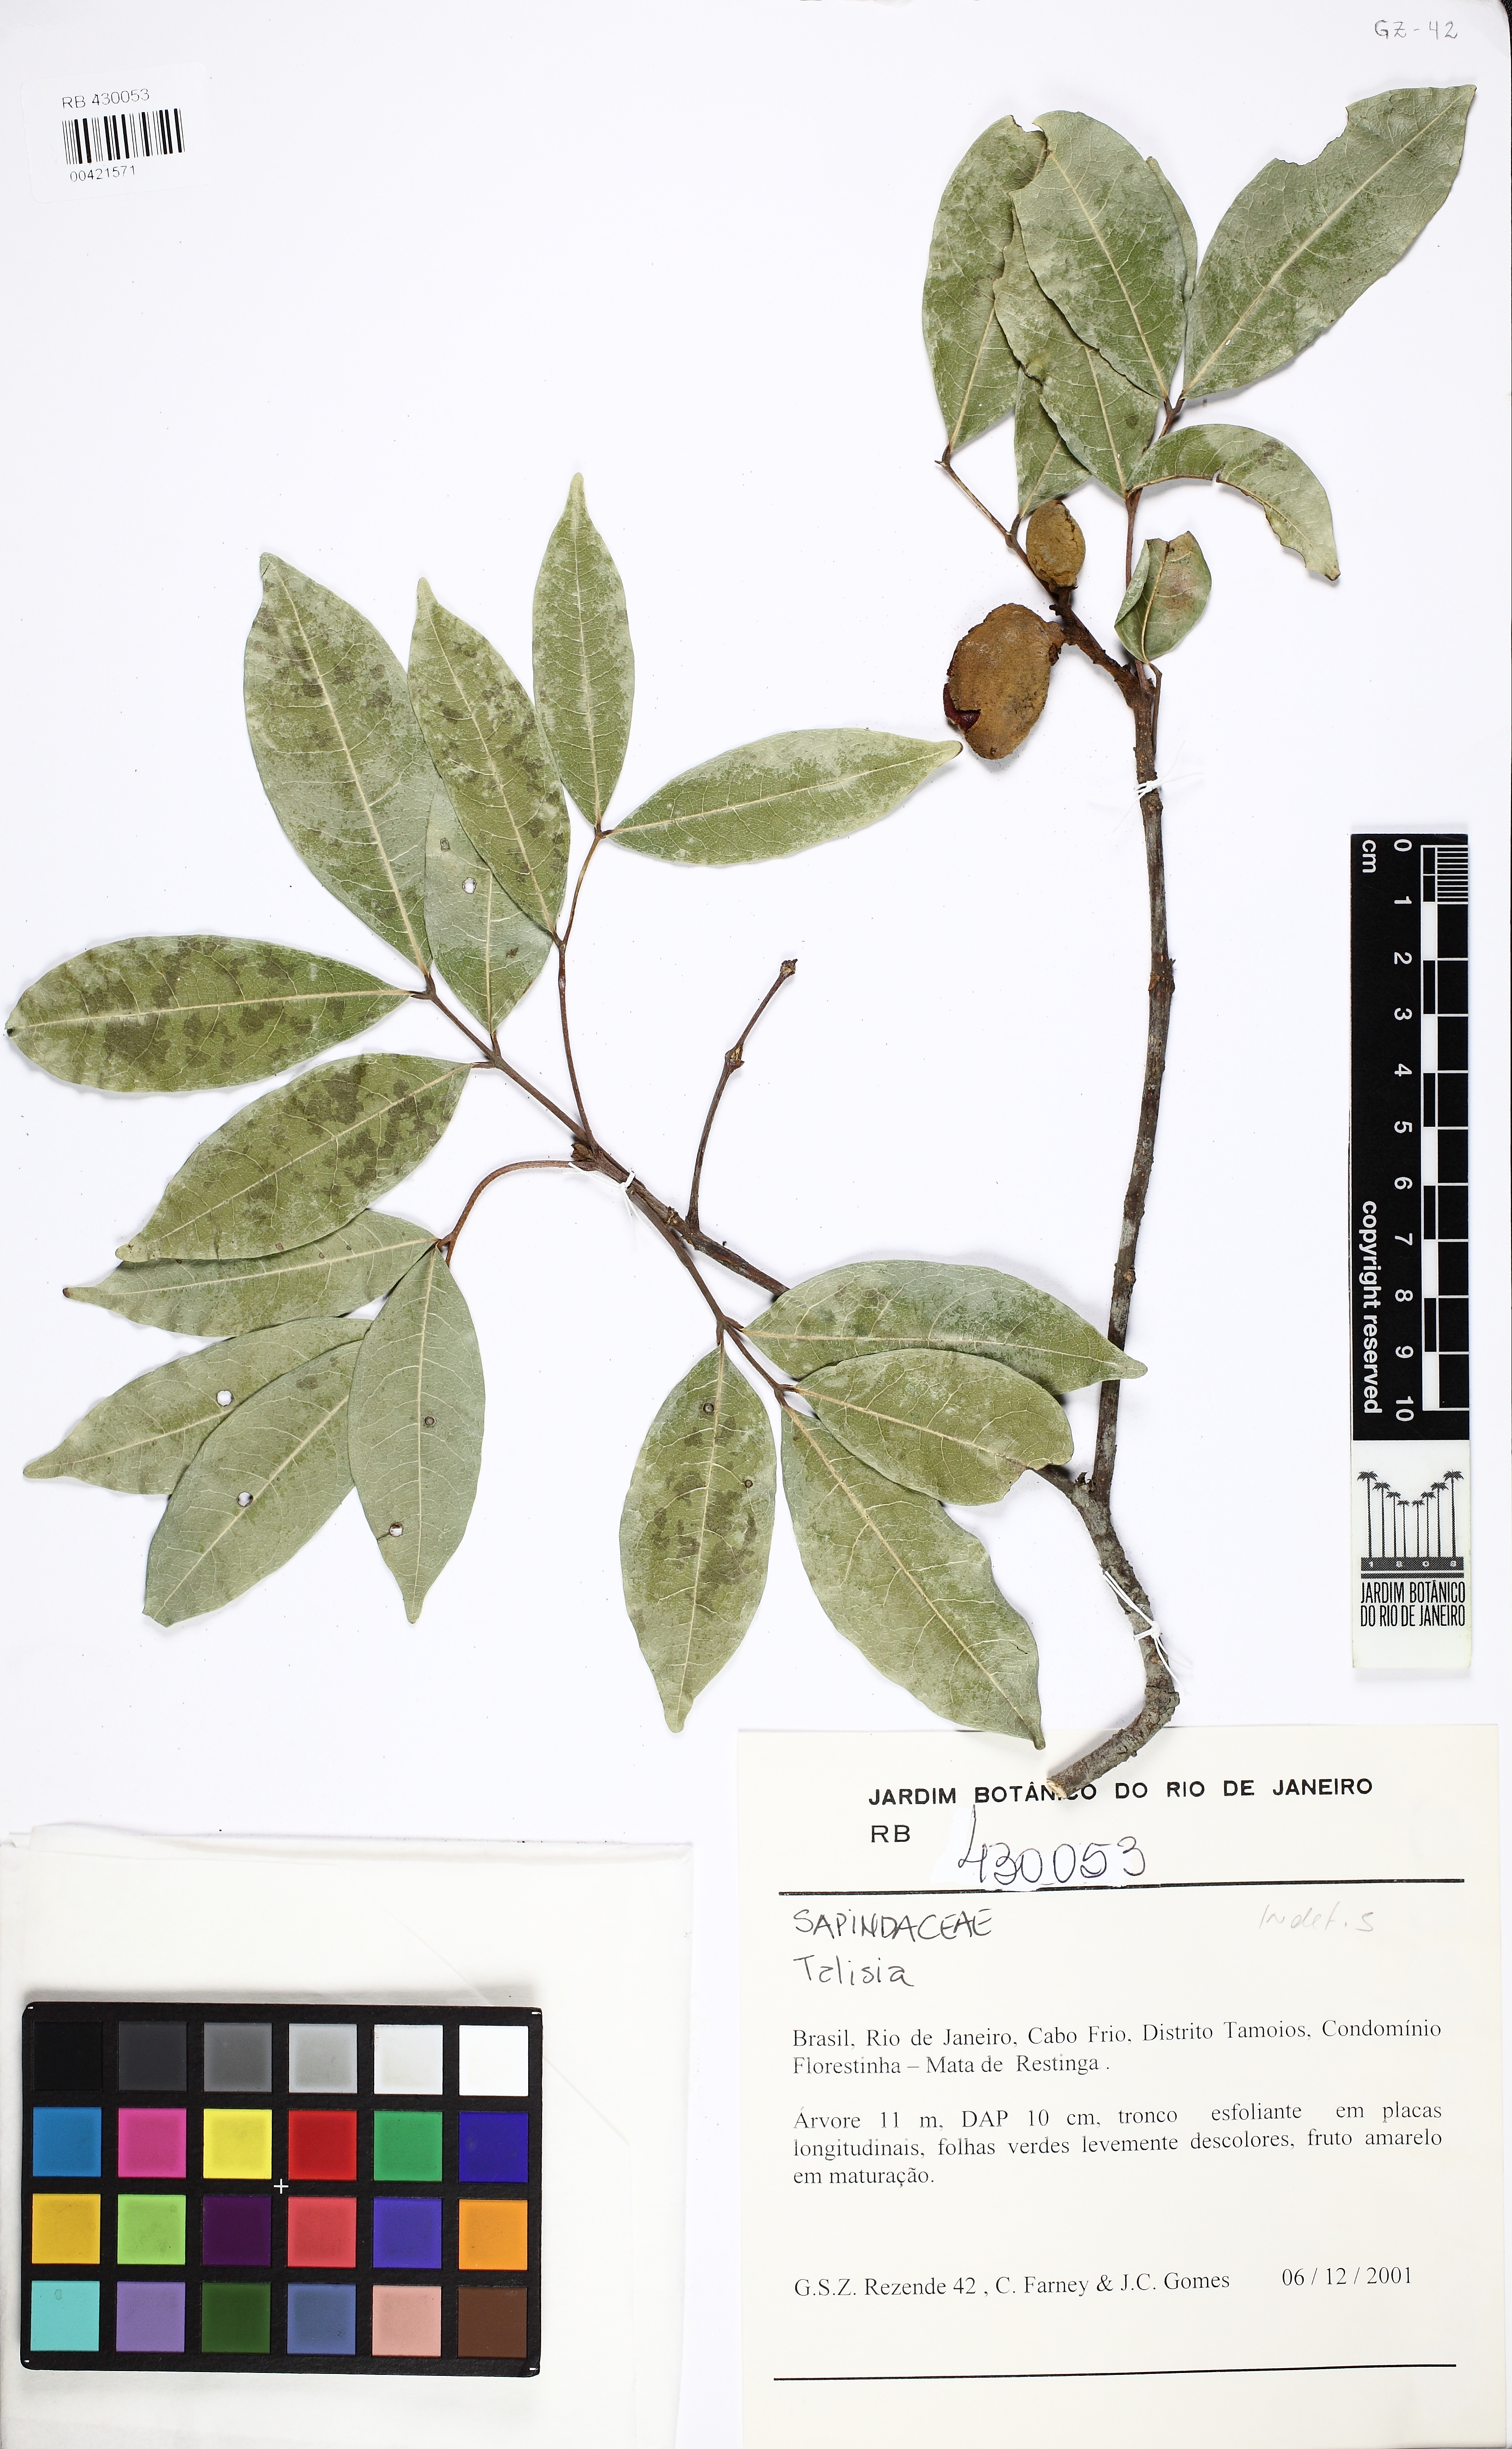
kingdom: Plantae
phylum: Tracheophyta
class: Magnoliopsida
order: Sapindales
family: Sapindaceae
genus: Melicoccus
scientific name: Melicoccus oliviformis
